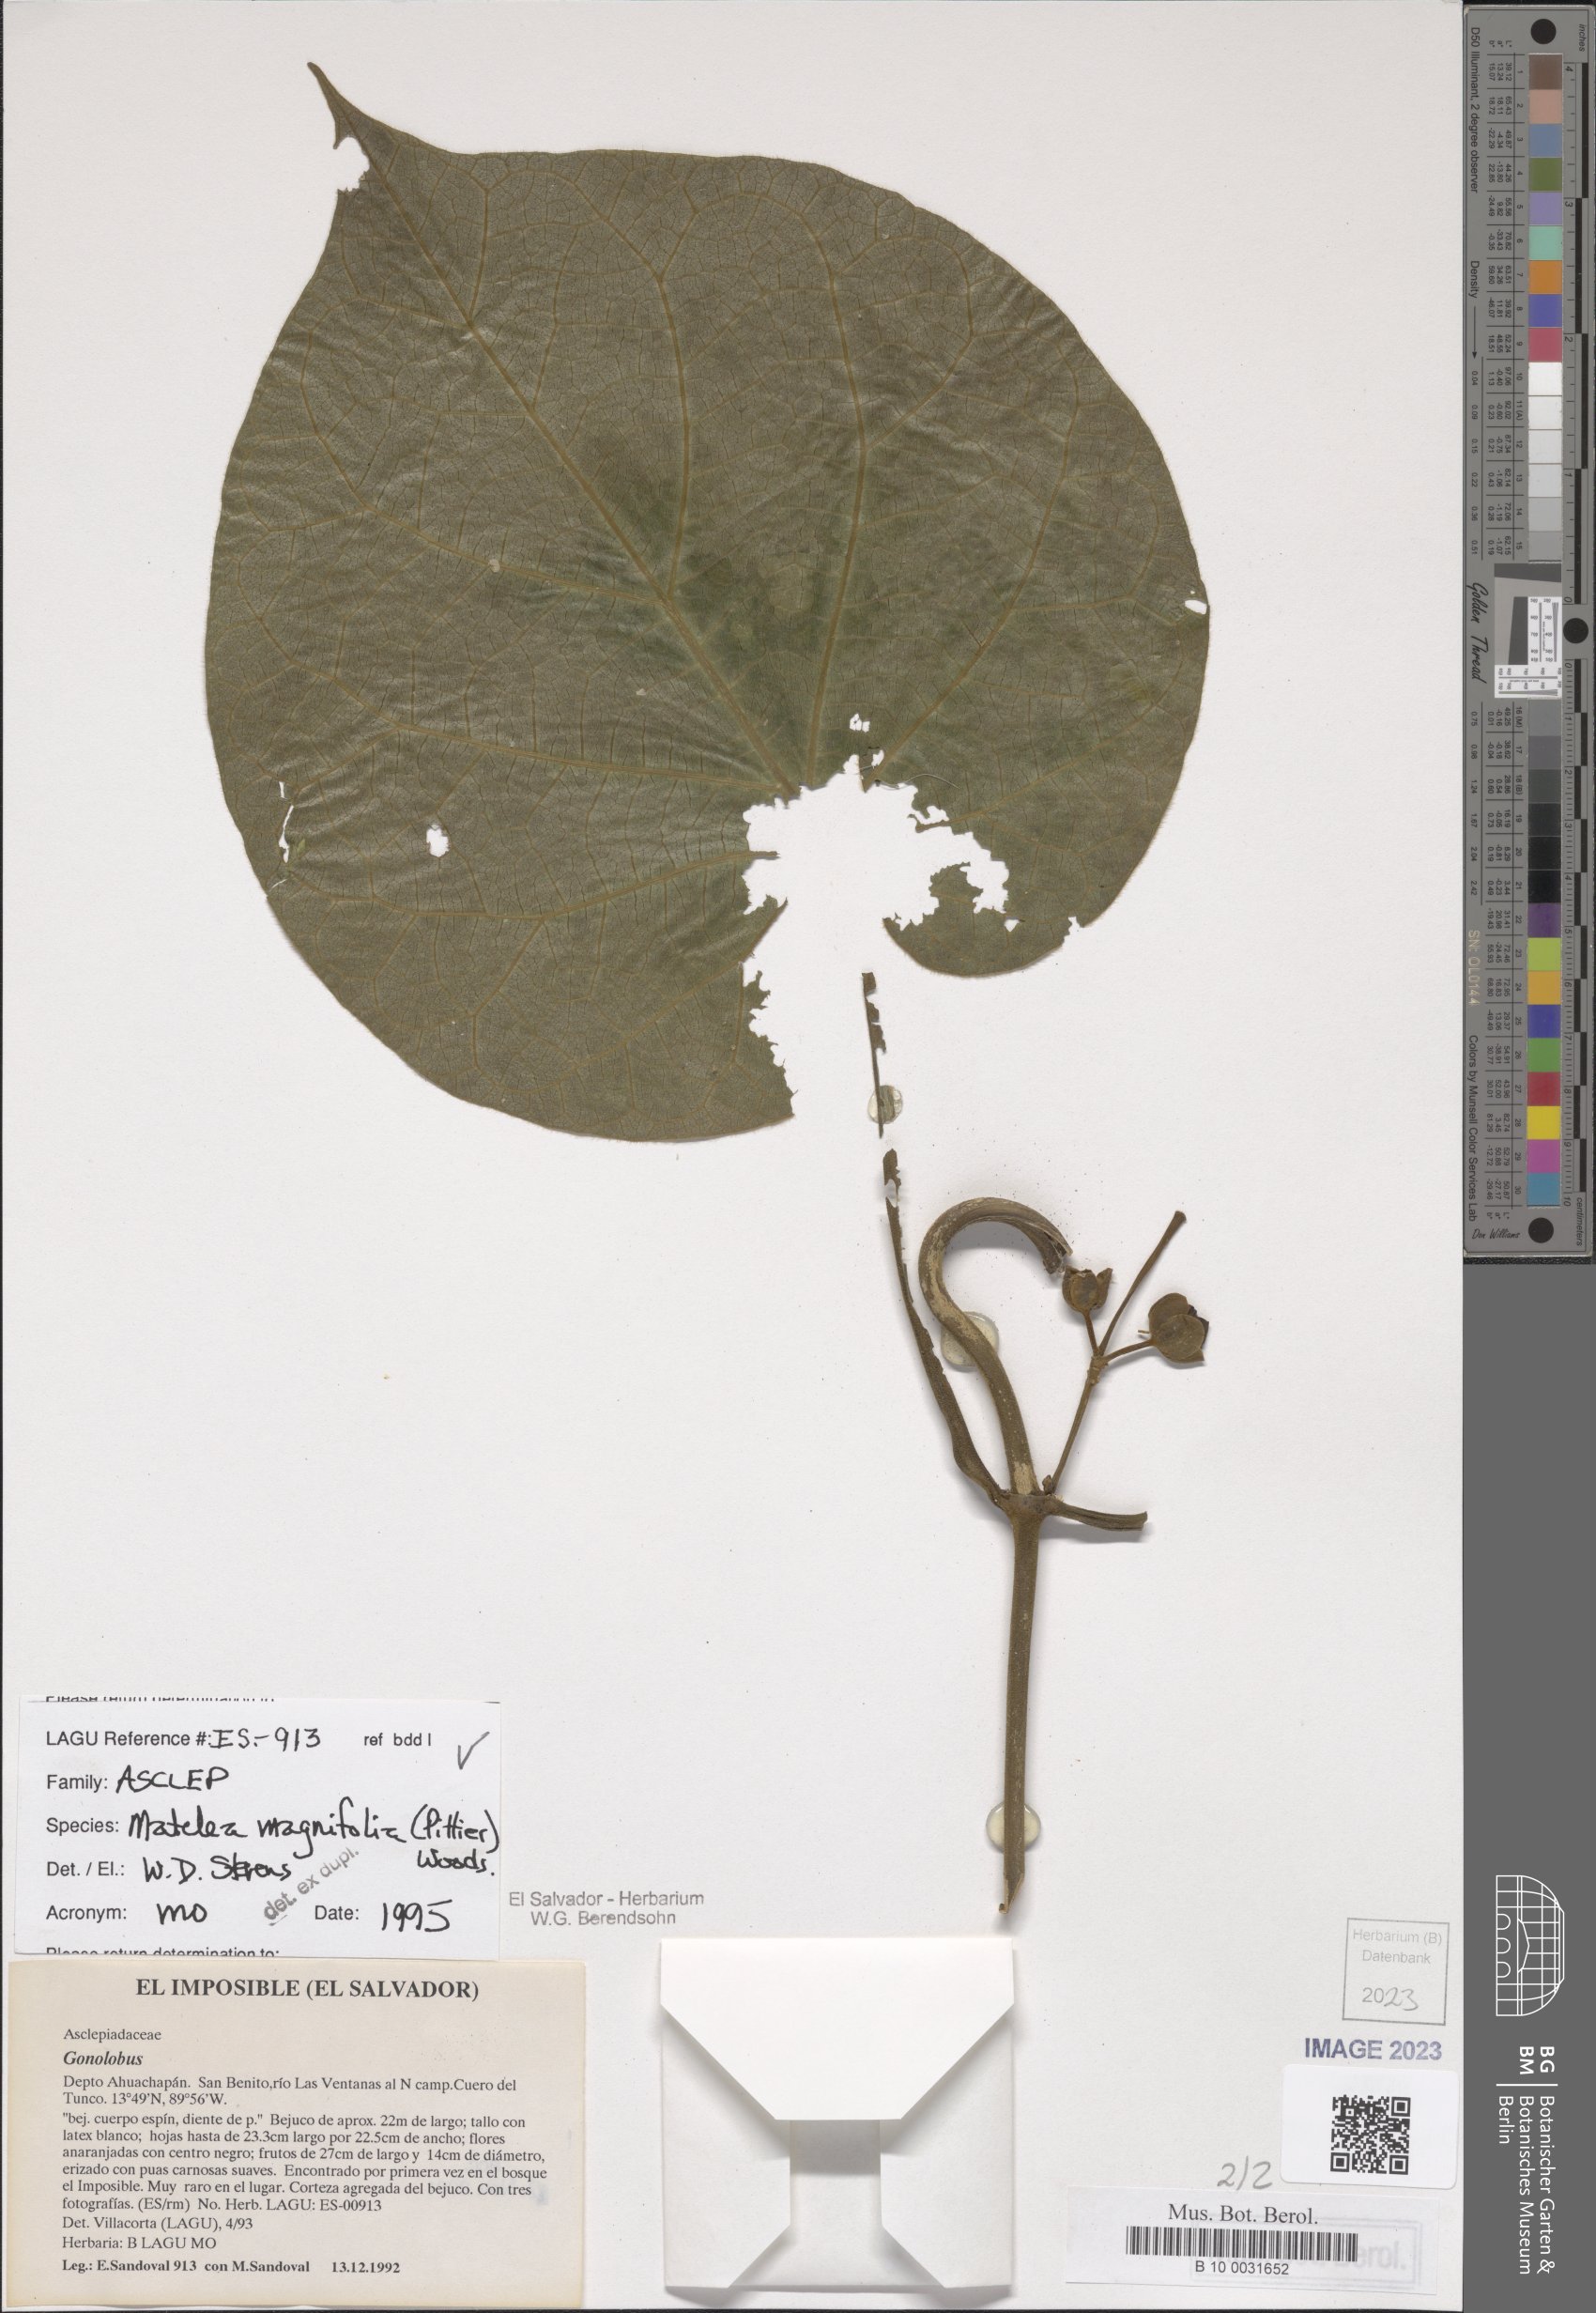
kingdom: Plantae
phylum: Tracheophyta
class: Magnoliopsida
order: Gentianales
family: Apocynaceae
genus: Bruceholstia
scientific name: Bruceholstia sidifolia
